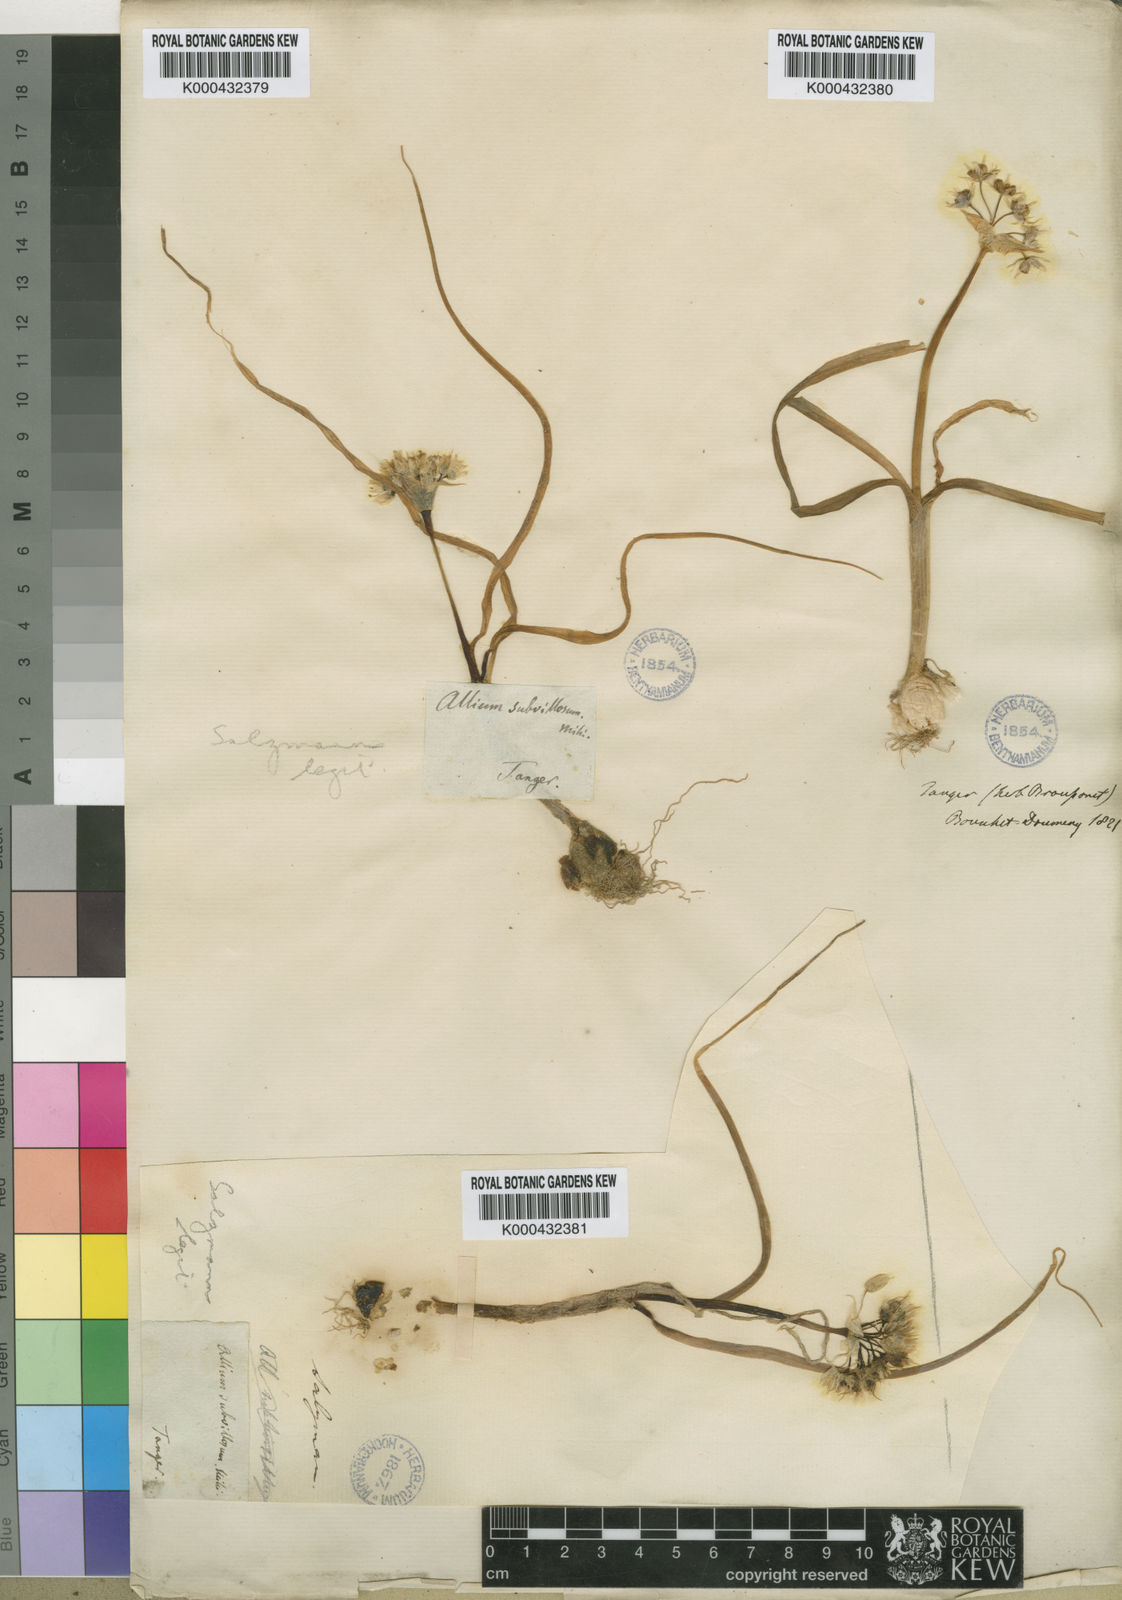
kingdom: Plantae
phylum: Tracheophyta
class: Liliopsida
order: Asparagales
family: Amaryllidaceae
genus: Allium
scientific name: Allium subvillosum
